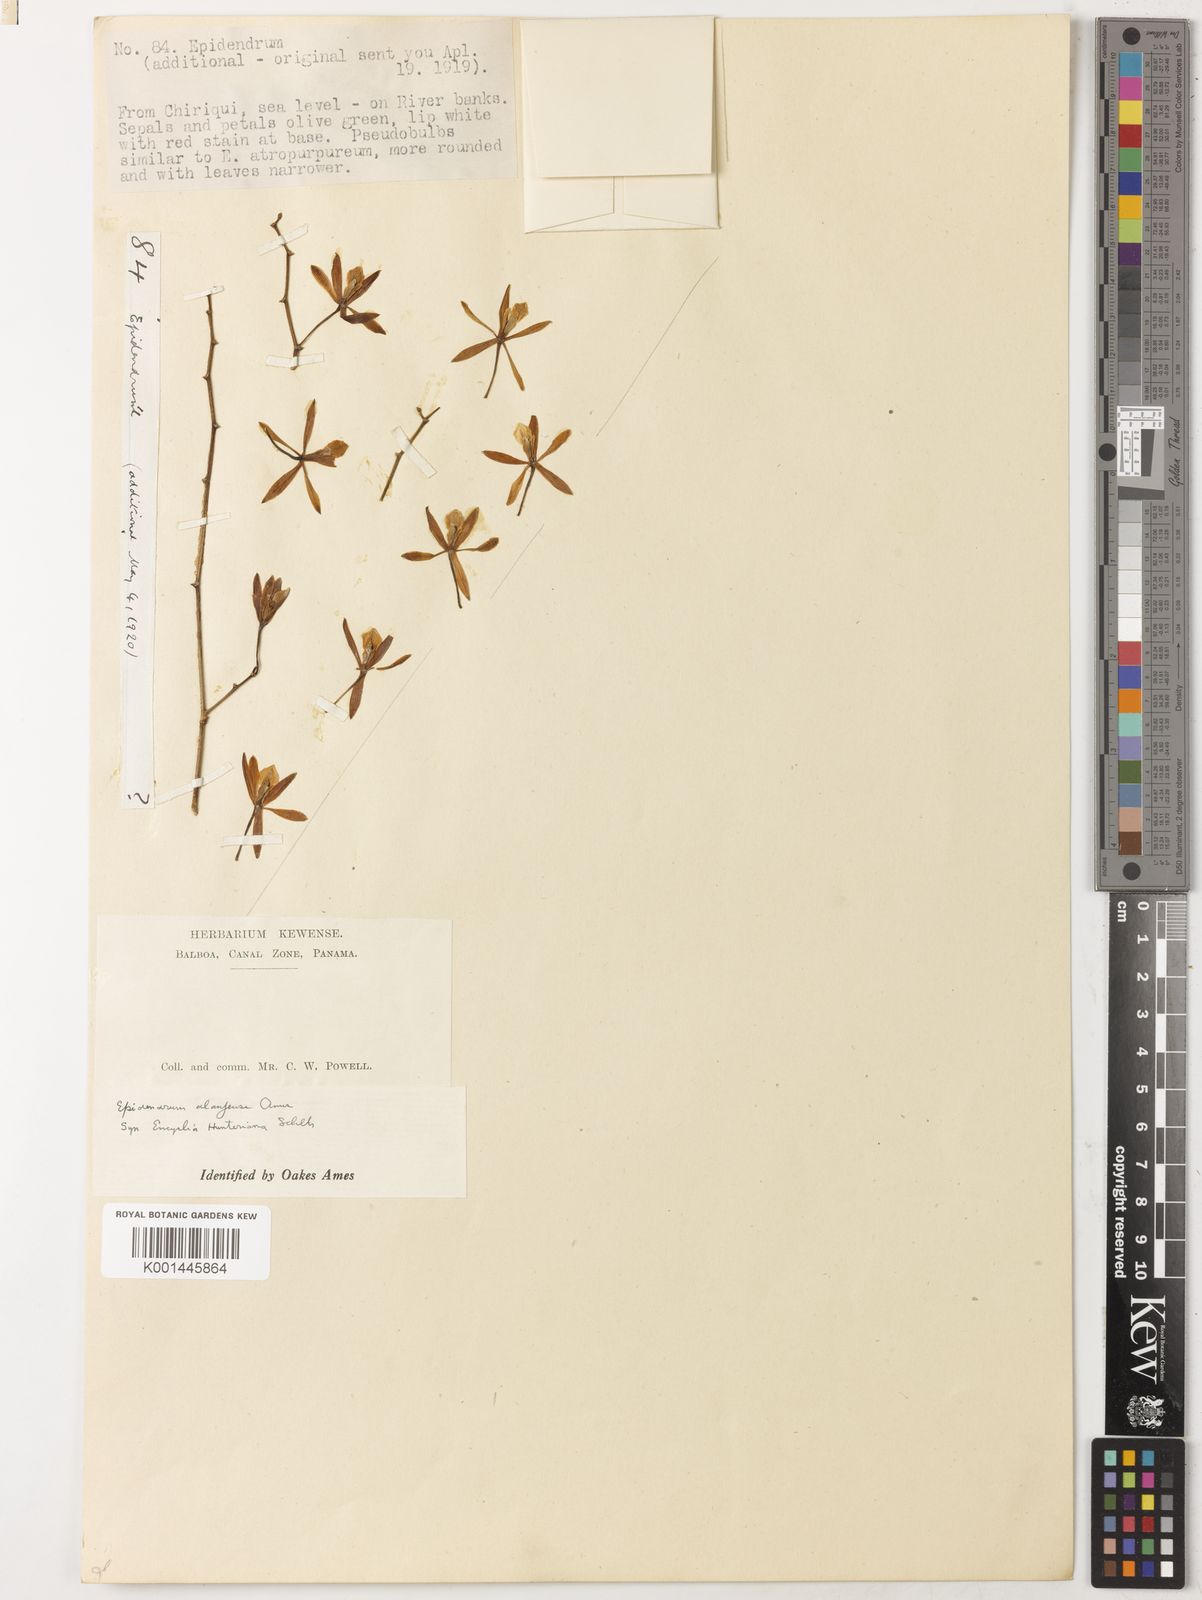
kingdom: Plantae
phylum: Tracheophyta
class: Liliopsida
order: Asparagales
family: Orchidaceae
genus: Encyclia
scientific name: Encyclia stellata
